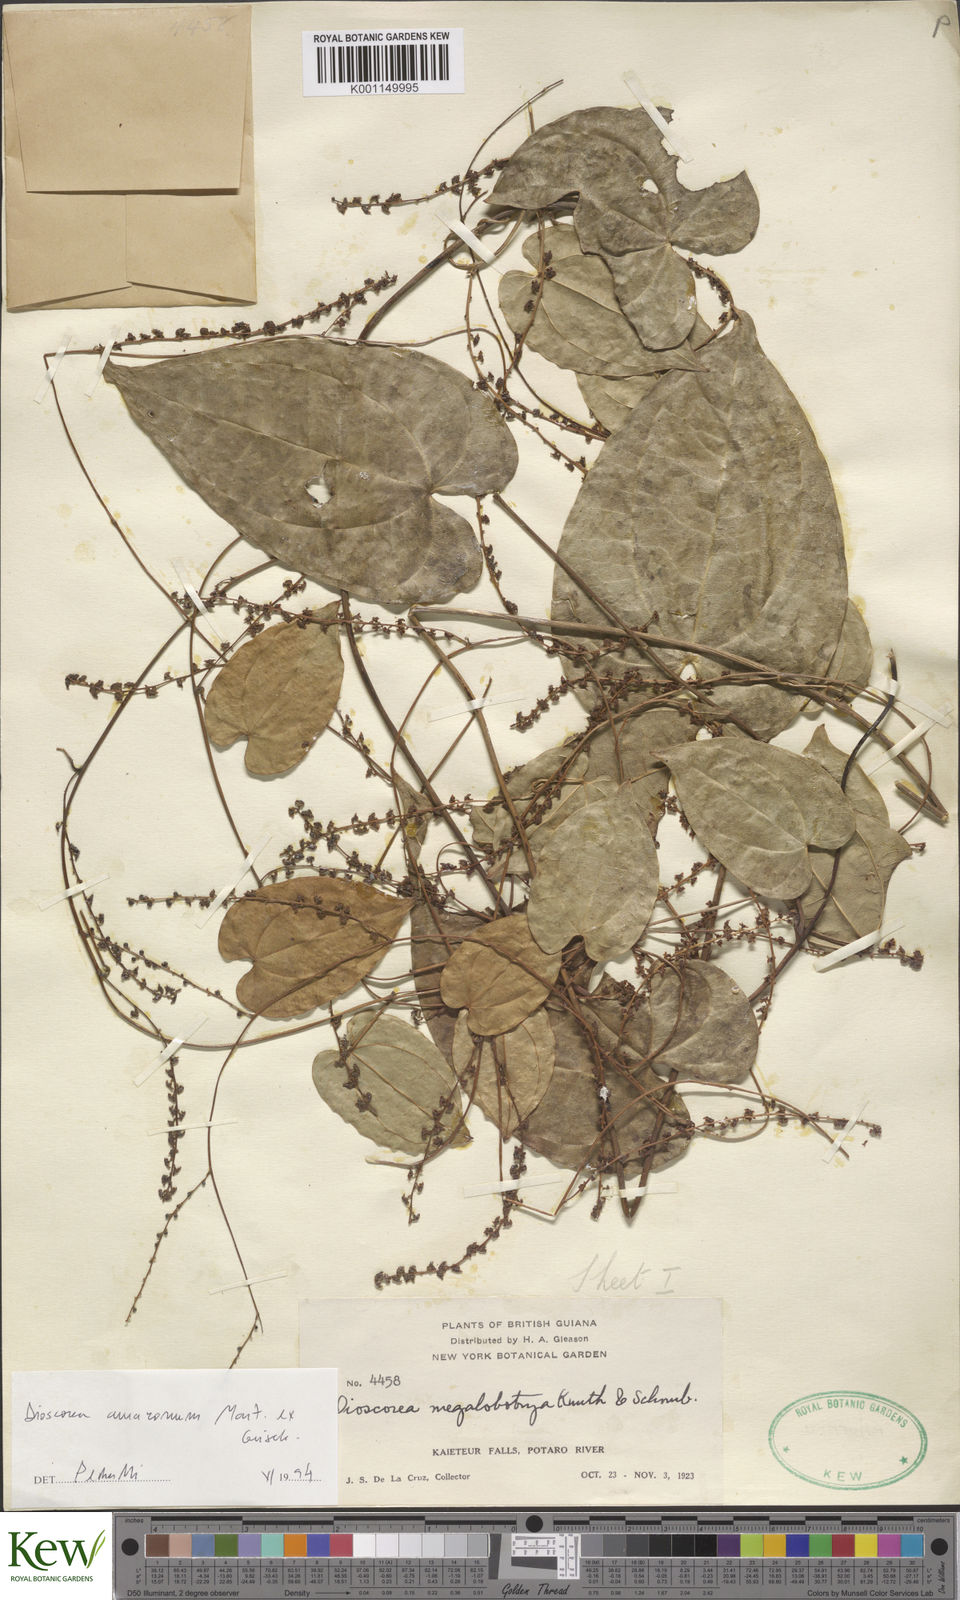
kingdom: Plantae
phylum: Tracheophyta
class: Liliopsida
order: Dioscoreales
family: Dioscoreaceae
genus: Dioscorea
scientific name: Dioscorea amazonum
